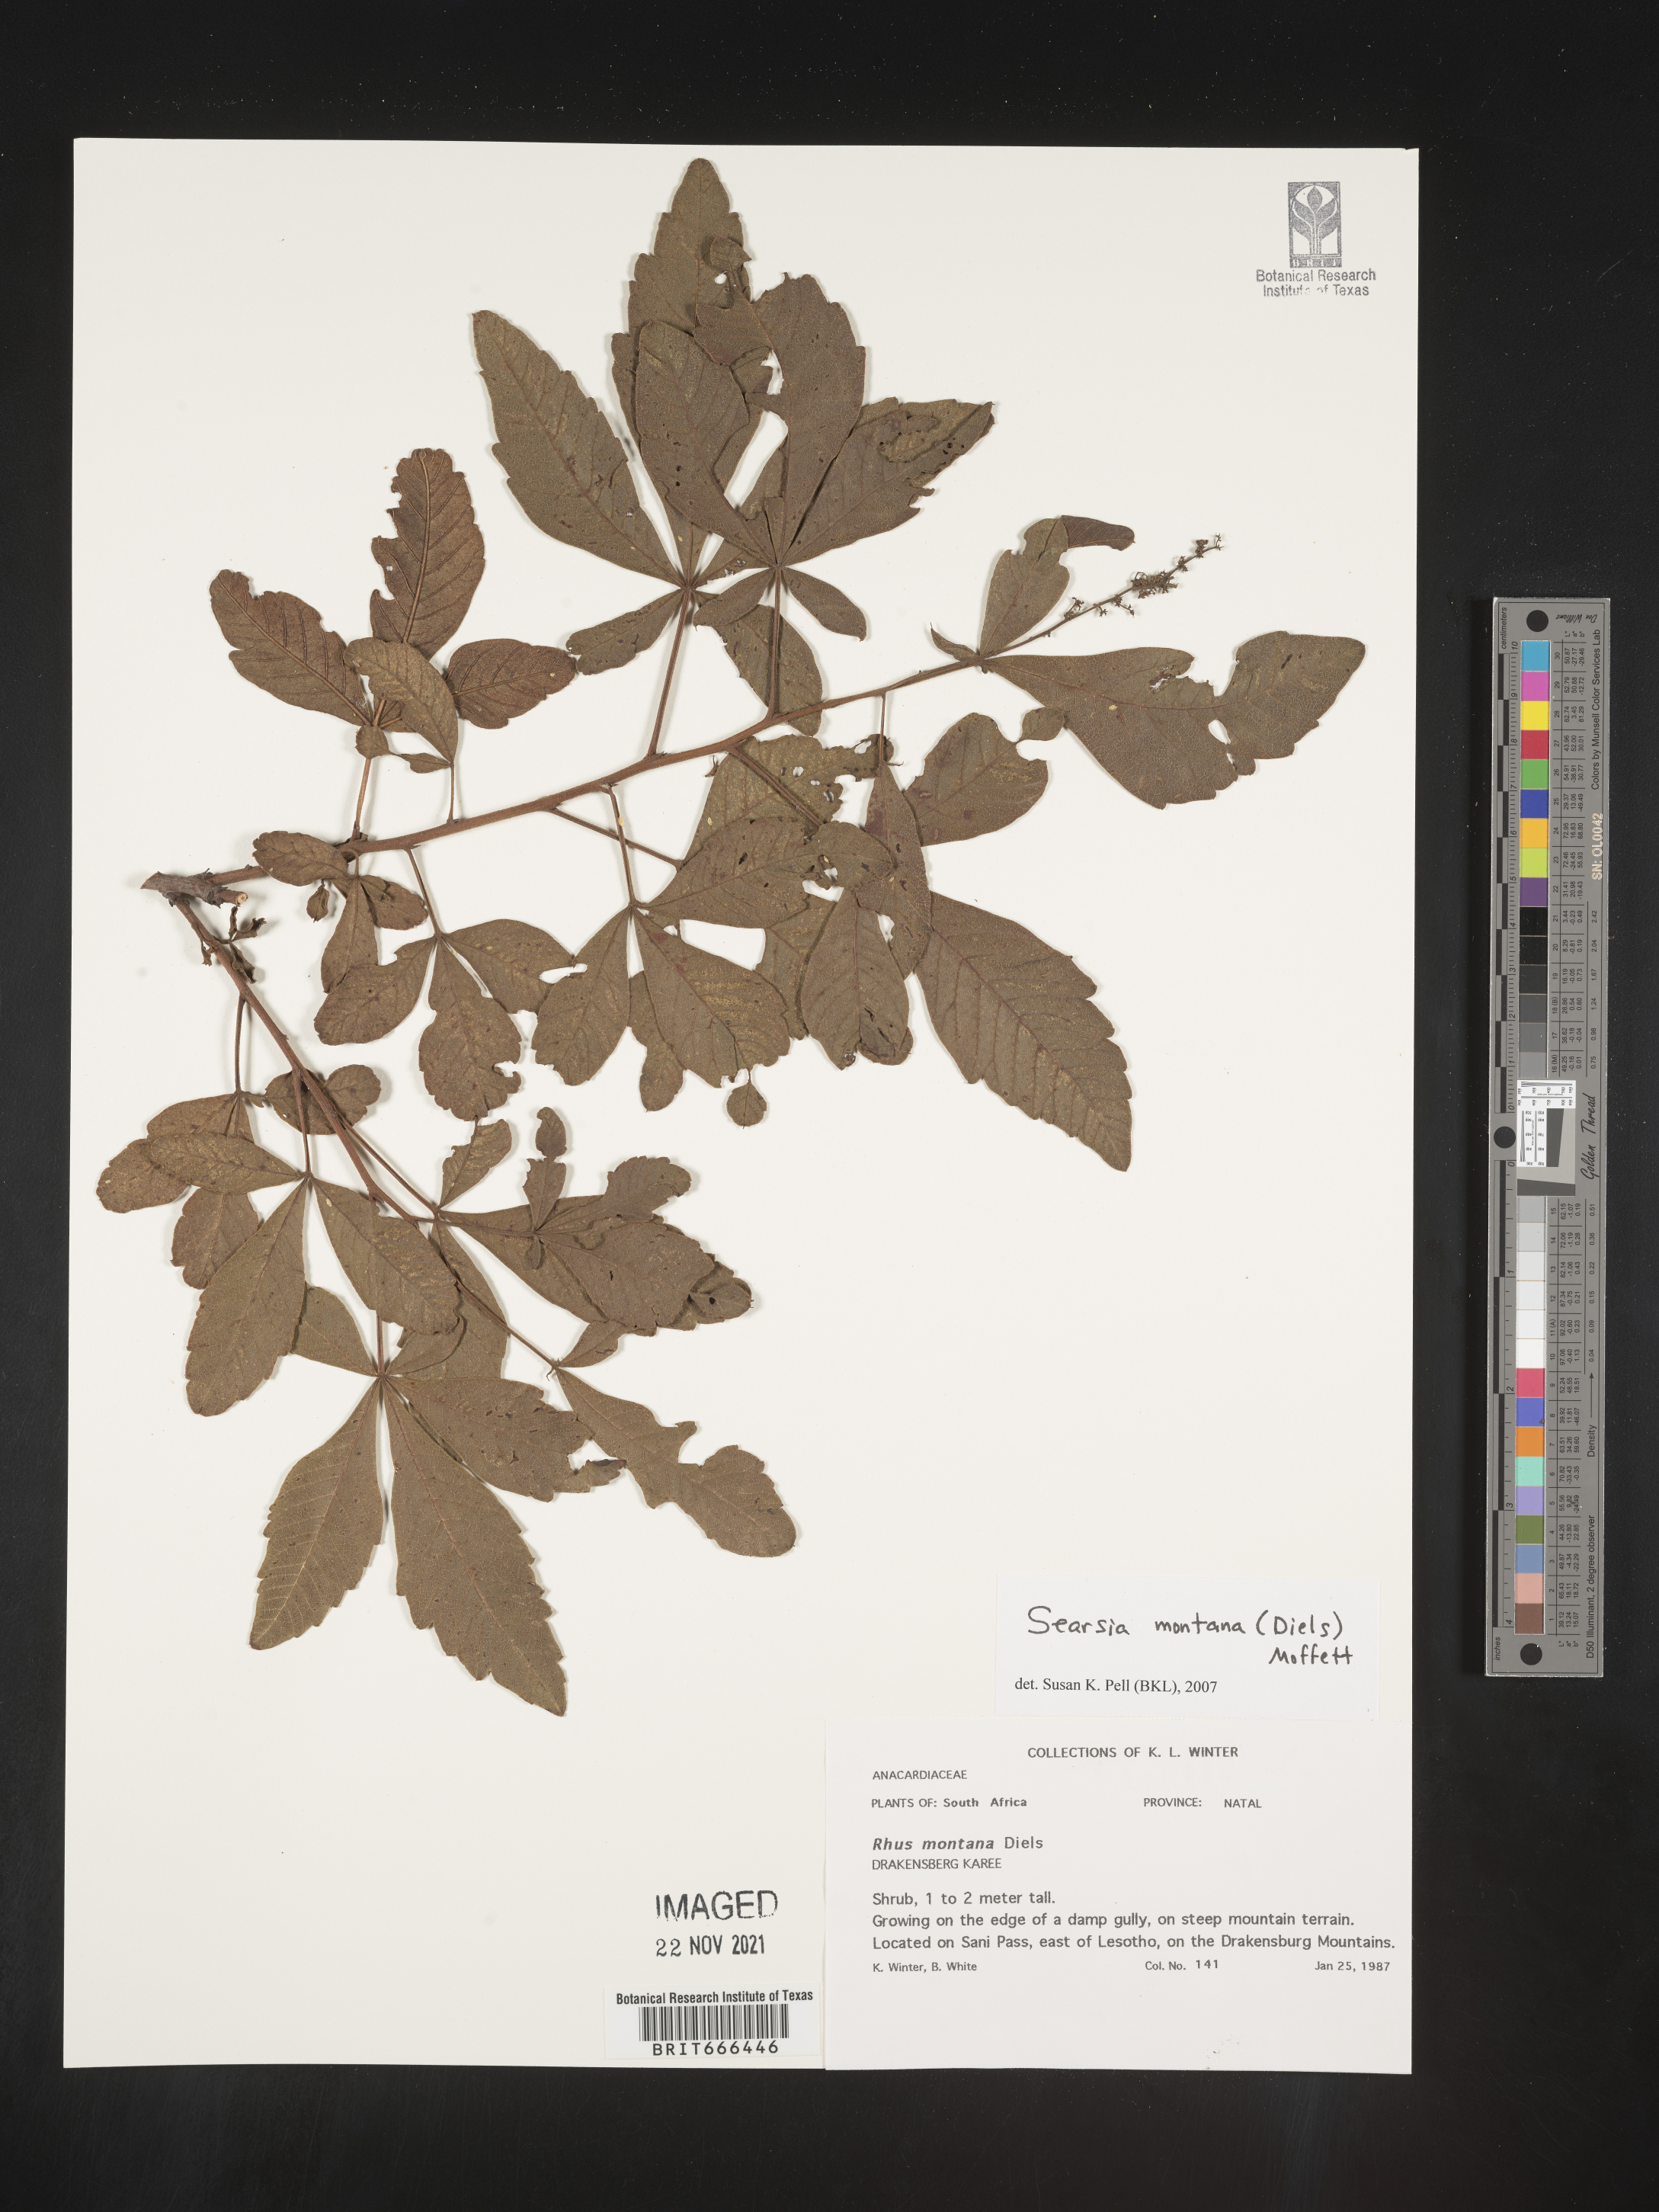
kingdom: Plantae
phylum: Tracheophyta
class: Magnoliopsida
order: Sapindales
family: Anacardiaceae
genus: Searsia
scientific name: Searsia
